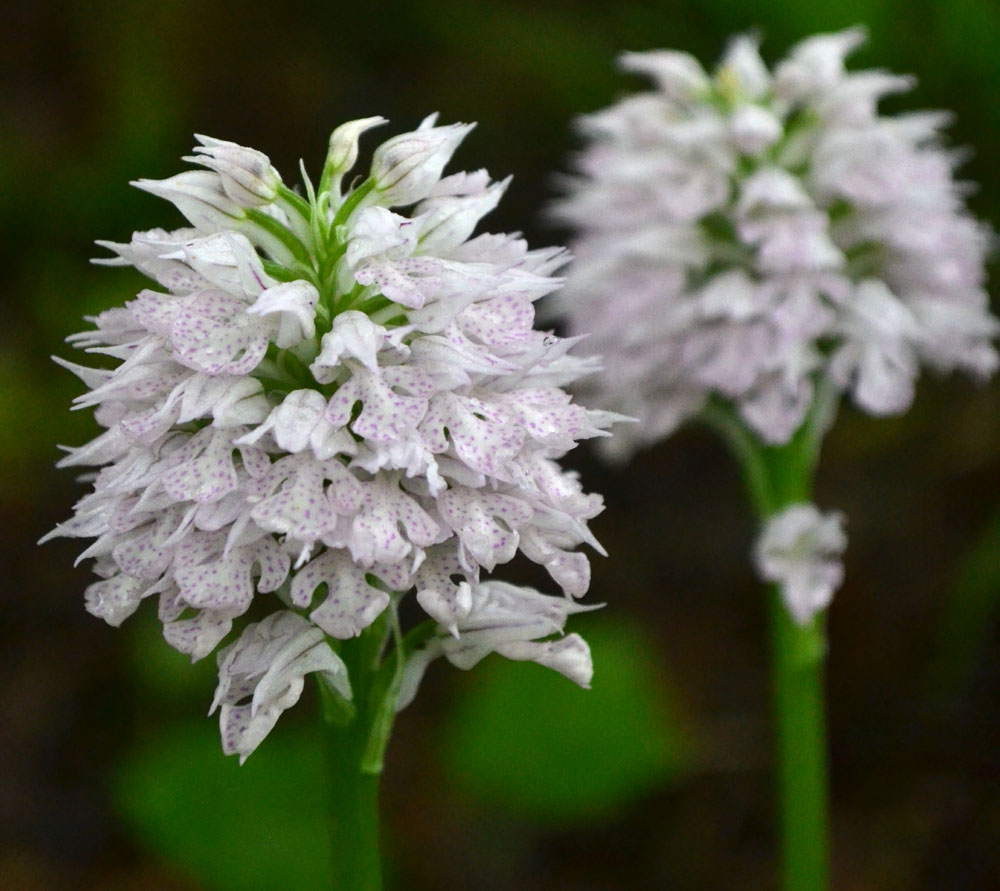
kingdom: Plantae
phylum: Tracheophyta
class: Liliopsida
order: Asparagales
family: Orchidaceae
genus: Neotinea
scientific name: Neotinea tridentata
